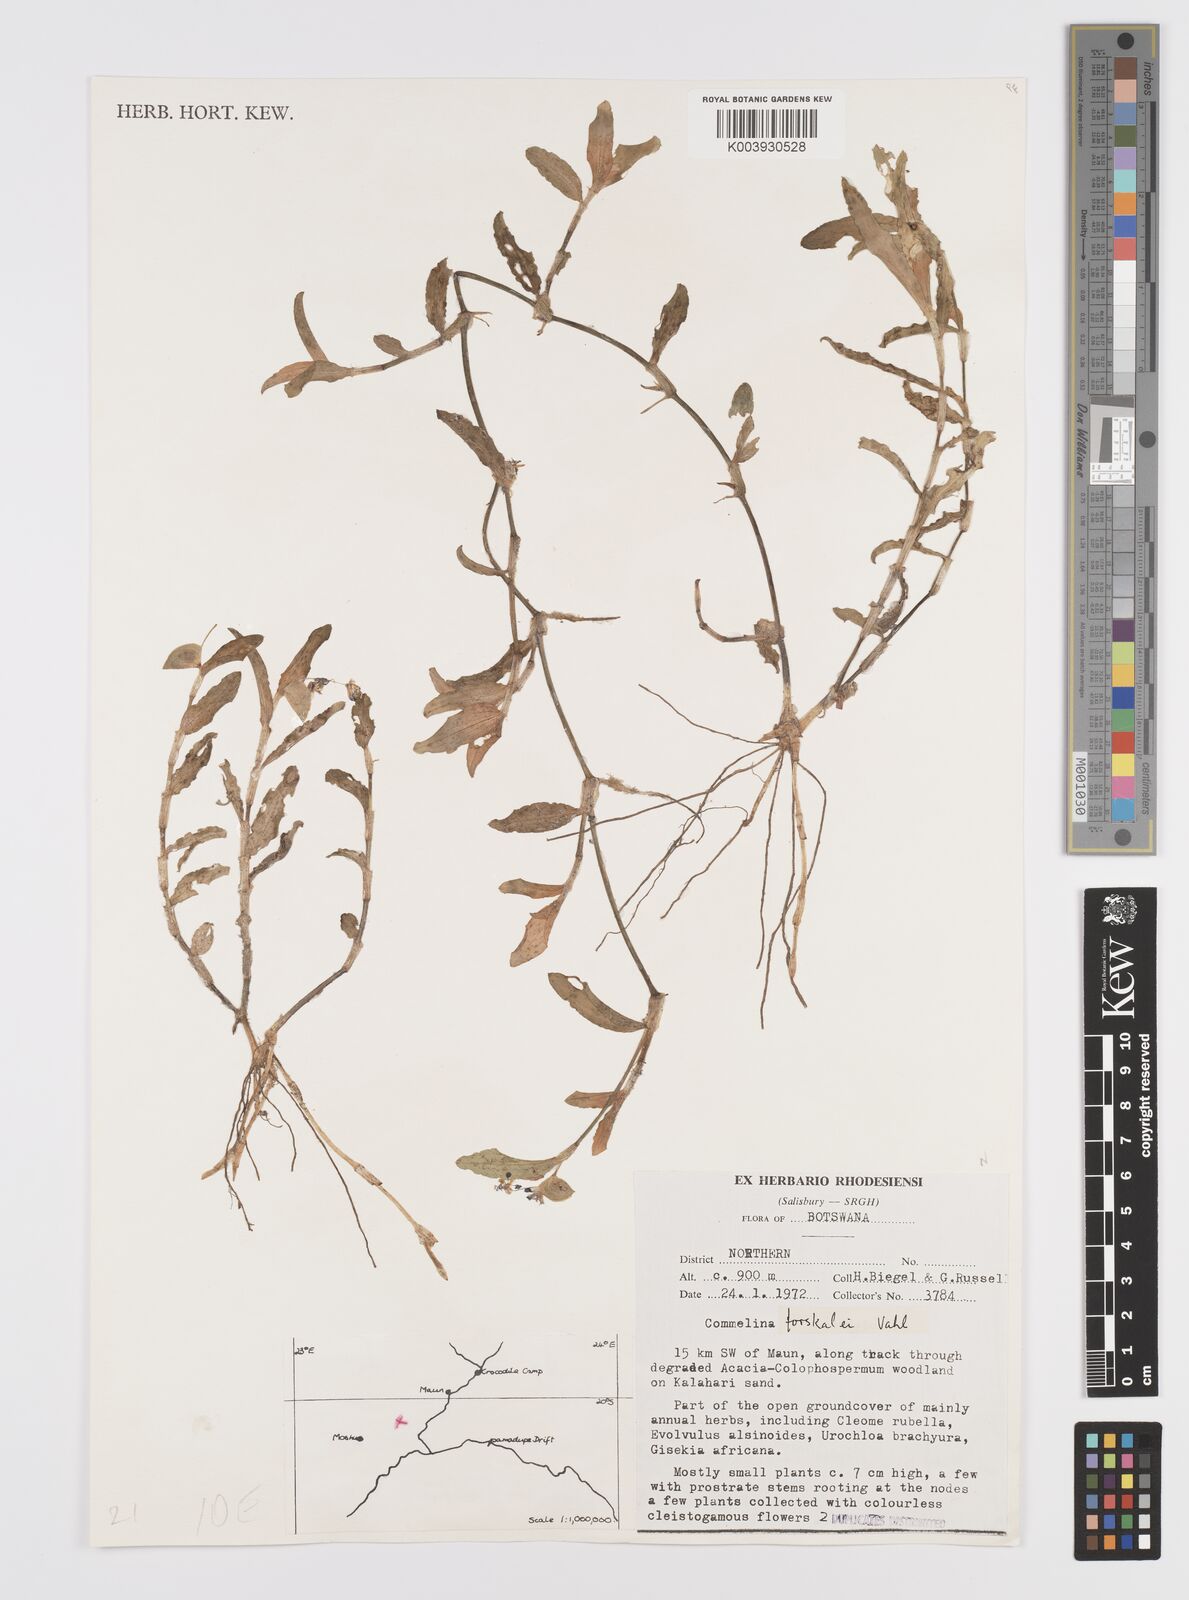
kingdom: Plantae
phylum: Tracheophyta
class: Liliopsida
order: Commelinales
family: Commelinaceae
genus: Commelina
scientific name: Commelina forskaolii
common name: Rat's ear
